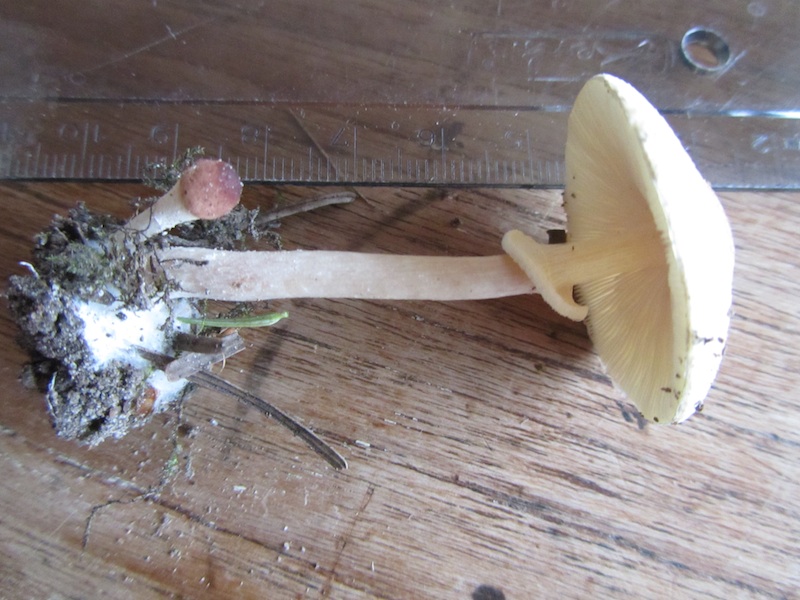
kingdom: Fungi
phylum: Basidiomycota
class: Agaricomycetes
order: Agaricales
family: Agaricaceae
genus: Leucoagaricus
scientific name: Leucoagaricus nympharum
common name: gran-silkehat
